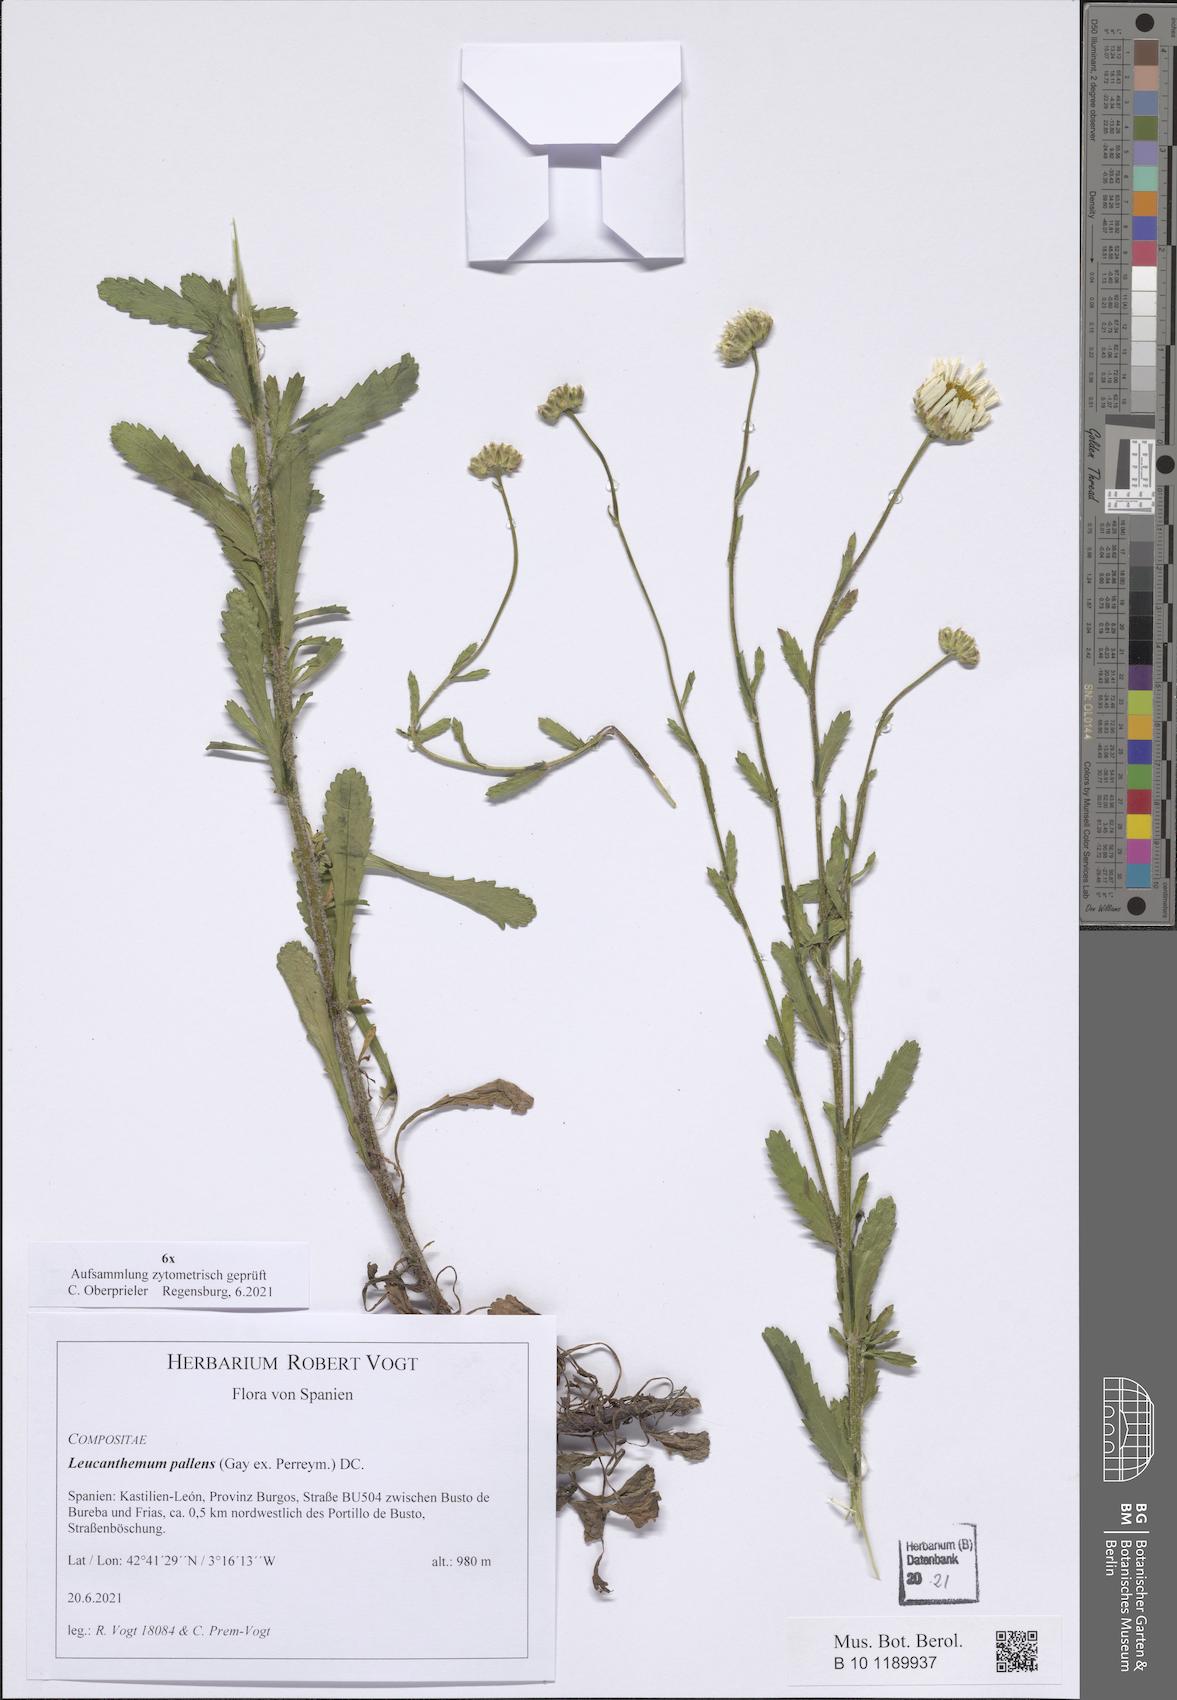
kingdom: Plantae
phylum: Tracheophyta
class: Magnoliopsida
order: Asterales
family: Asteraceae
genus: Leucanthemum
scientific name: Leucanthemum pallens
